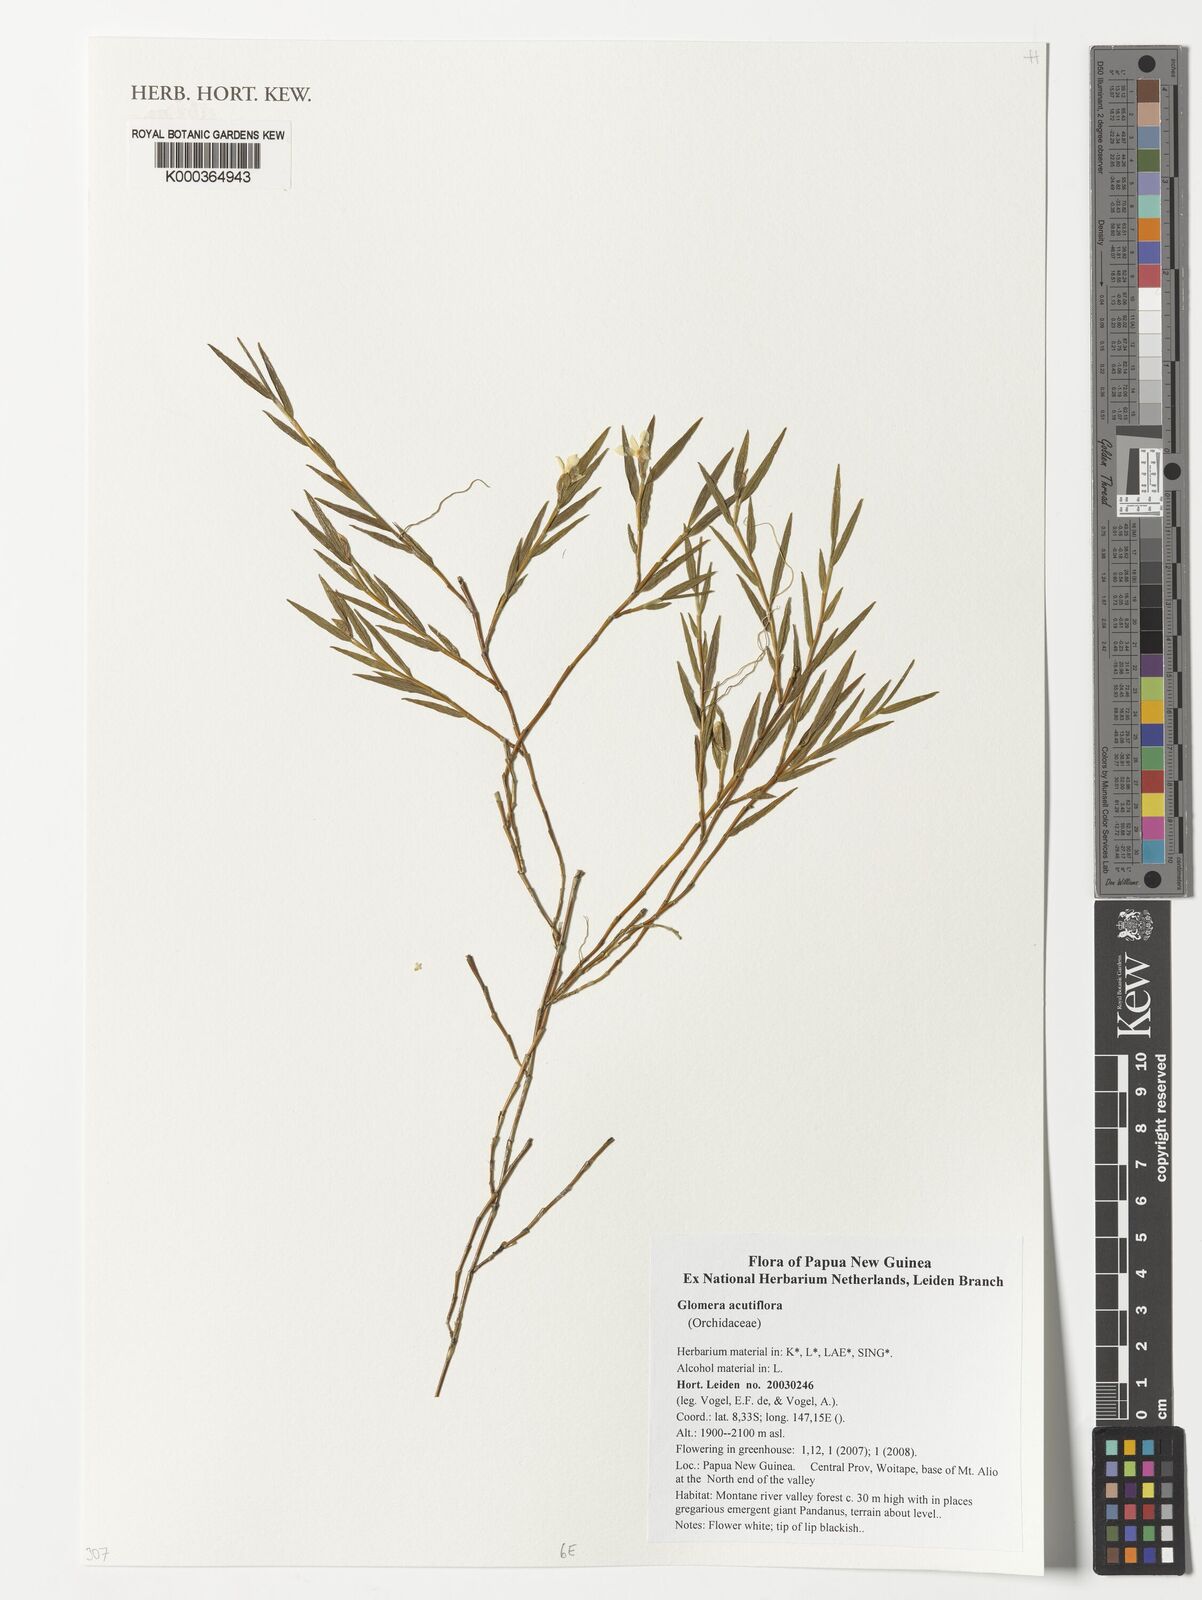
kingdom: Plantae
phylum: Tracheophyta
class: Liliopsida
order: Asparagales
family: Orchidaceae
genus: Glomera
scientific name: Glomera acutiflora
